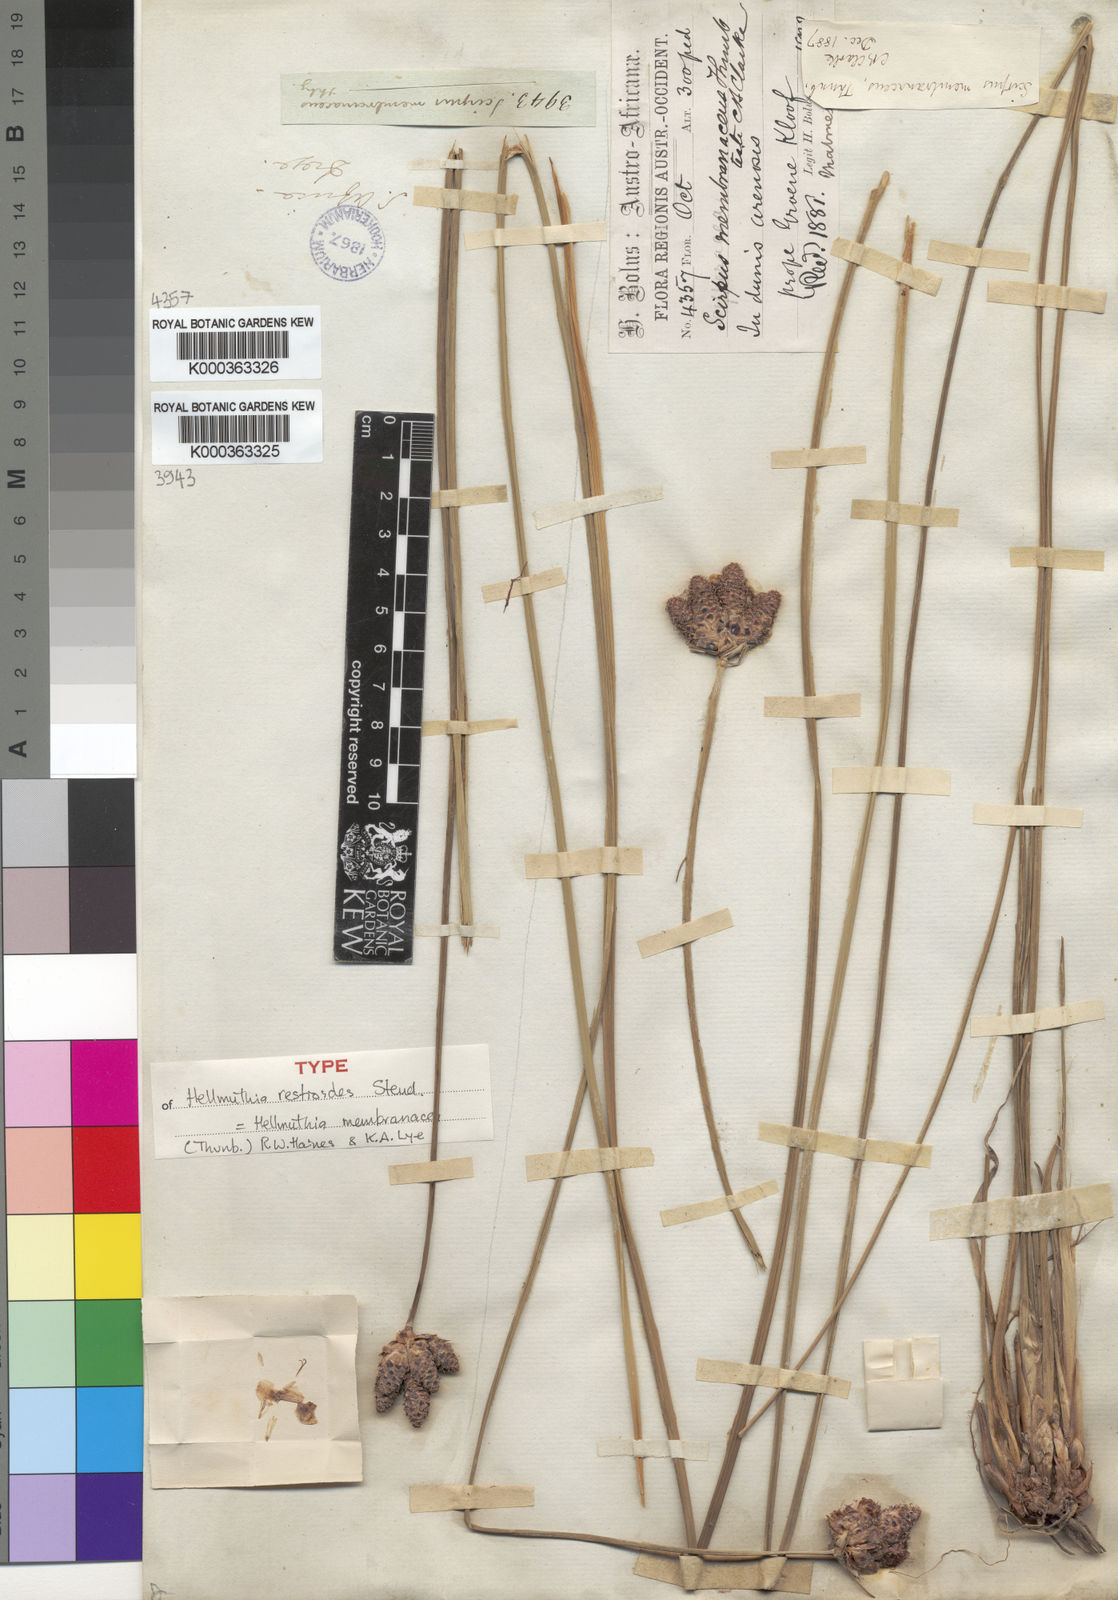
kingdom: Plantae
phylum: Tracheophyta
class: Liliopsida
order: Poales
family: Cyperaceae
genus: Hellmuthia
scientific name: Hellmuthia membranacea
